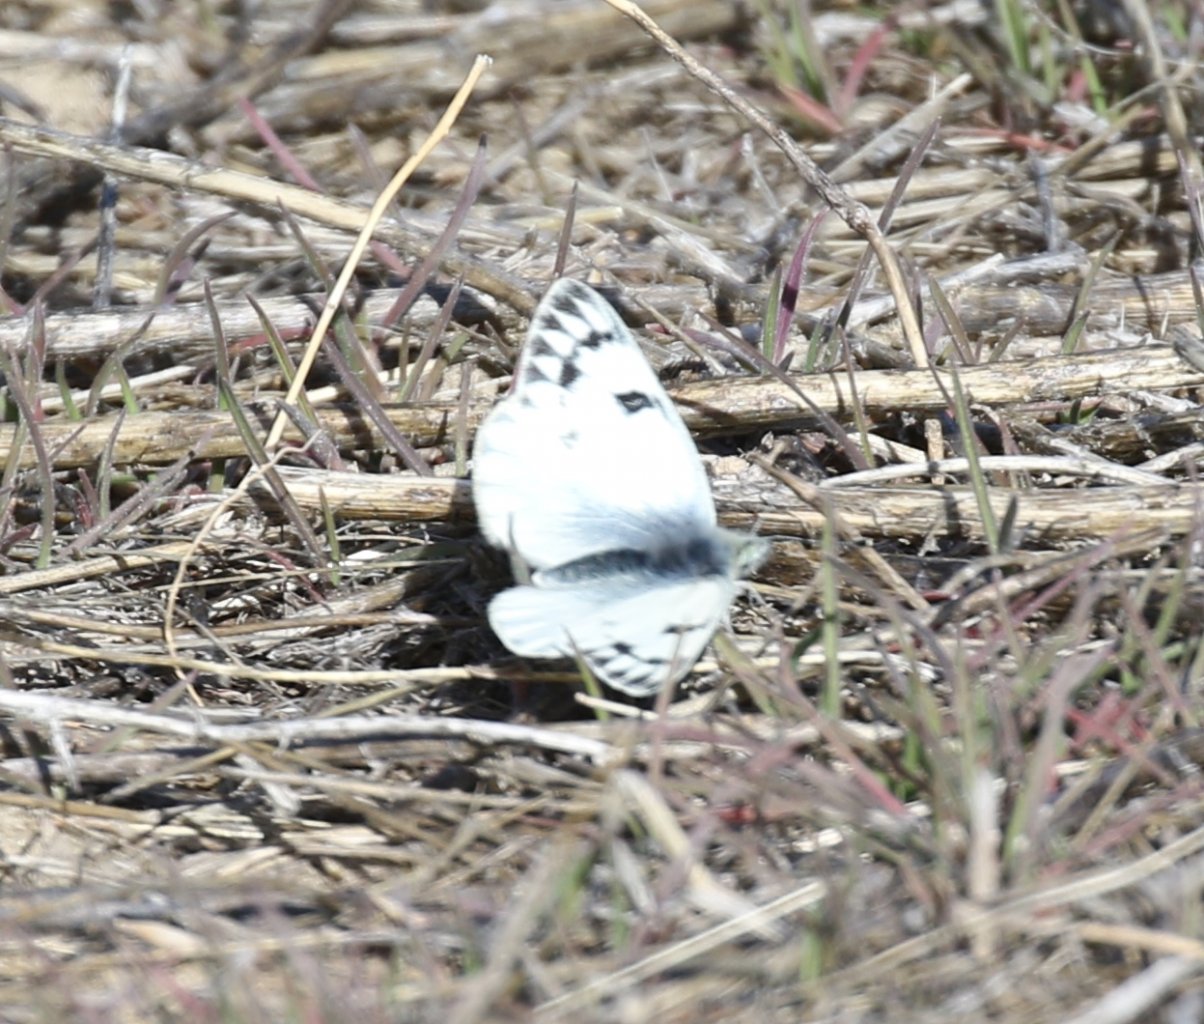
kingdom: Animalia
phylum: Arthropoda
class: Insecta
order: Lepidoptera
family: Pieridae
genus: Pontia
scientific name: Pontia occidentalis
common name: Western White
